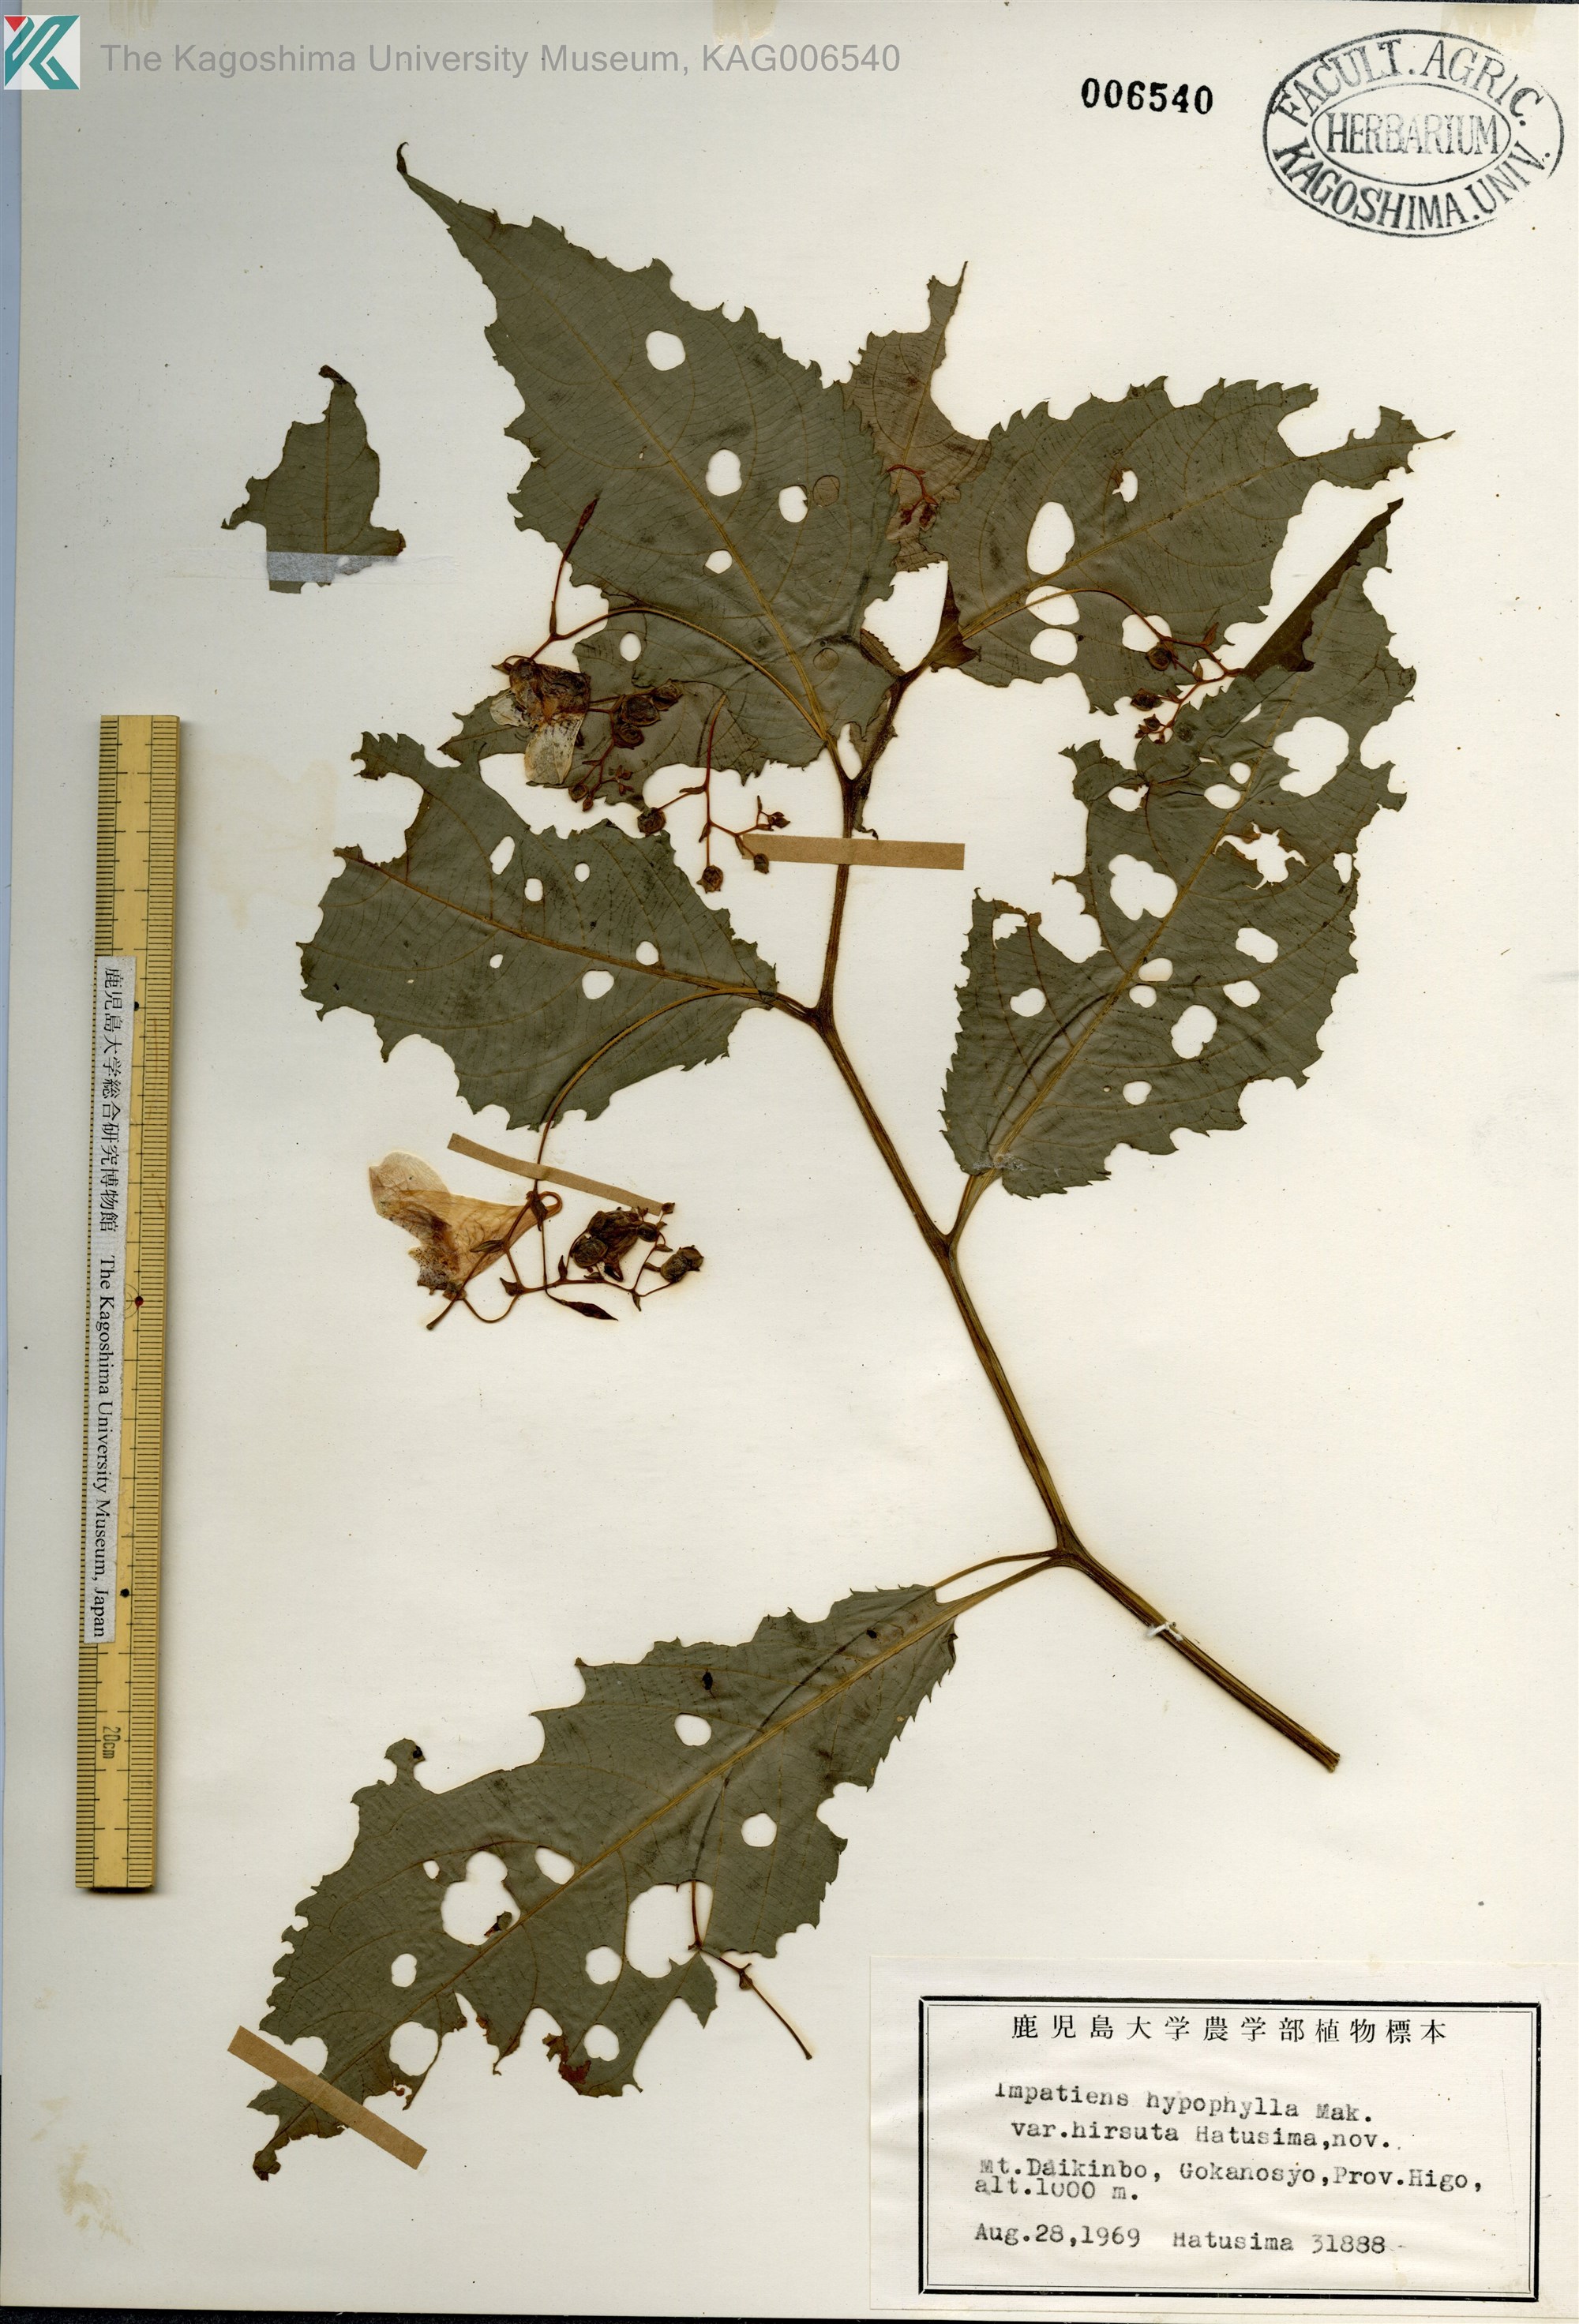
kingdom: Plantae
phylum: Tracheophyta
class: Magnoliopsida
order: Ericales
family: Balsaminaceae
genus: Impatiens
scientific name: Impatiens hypophylla
